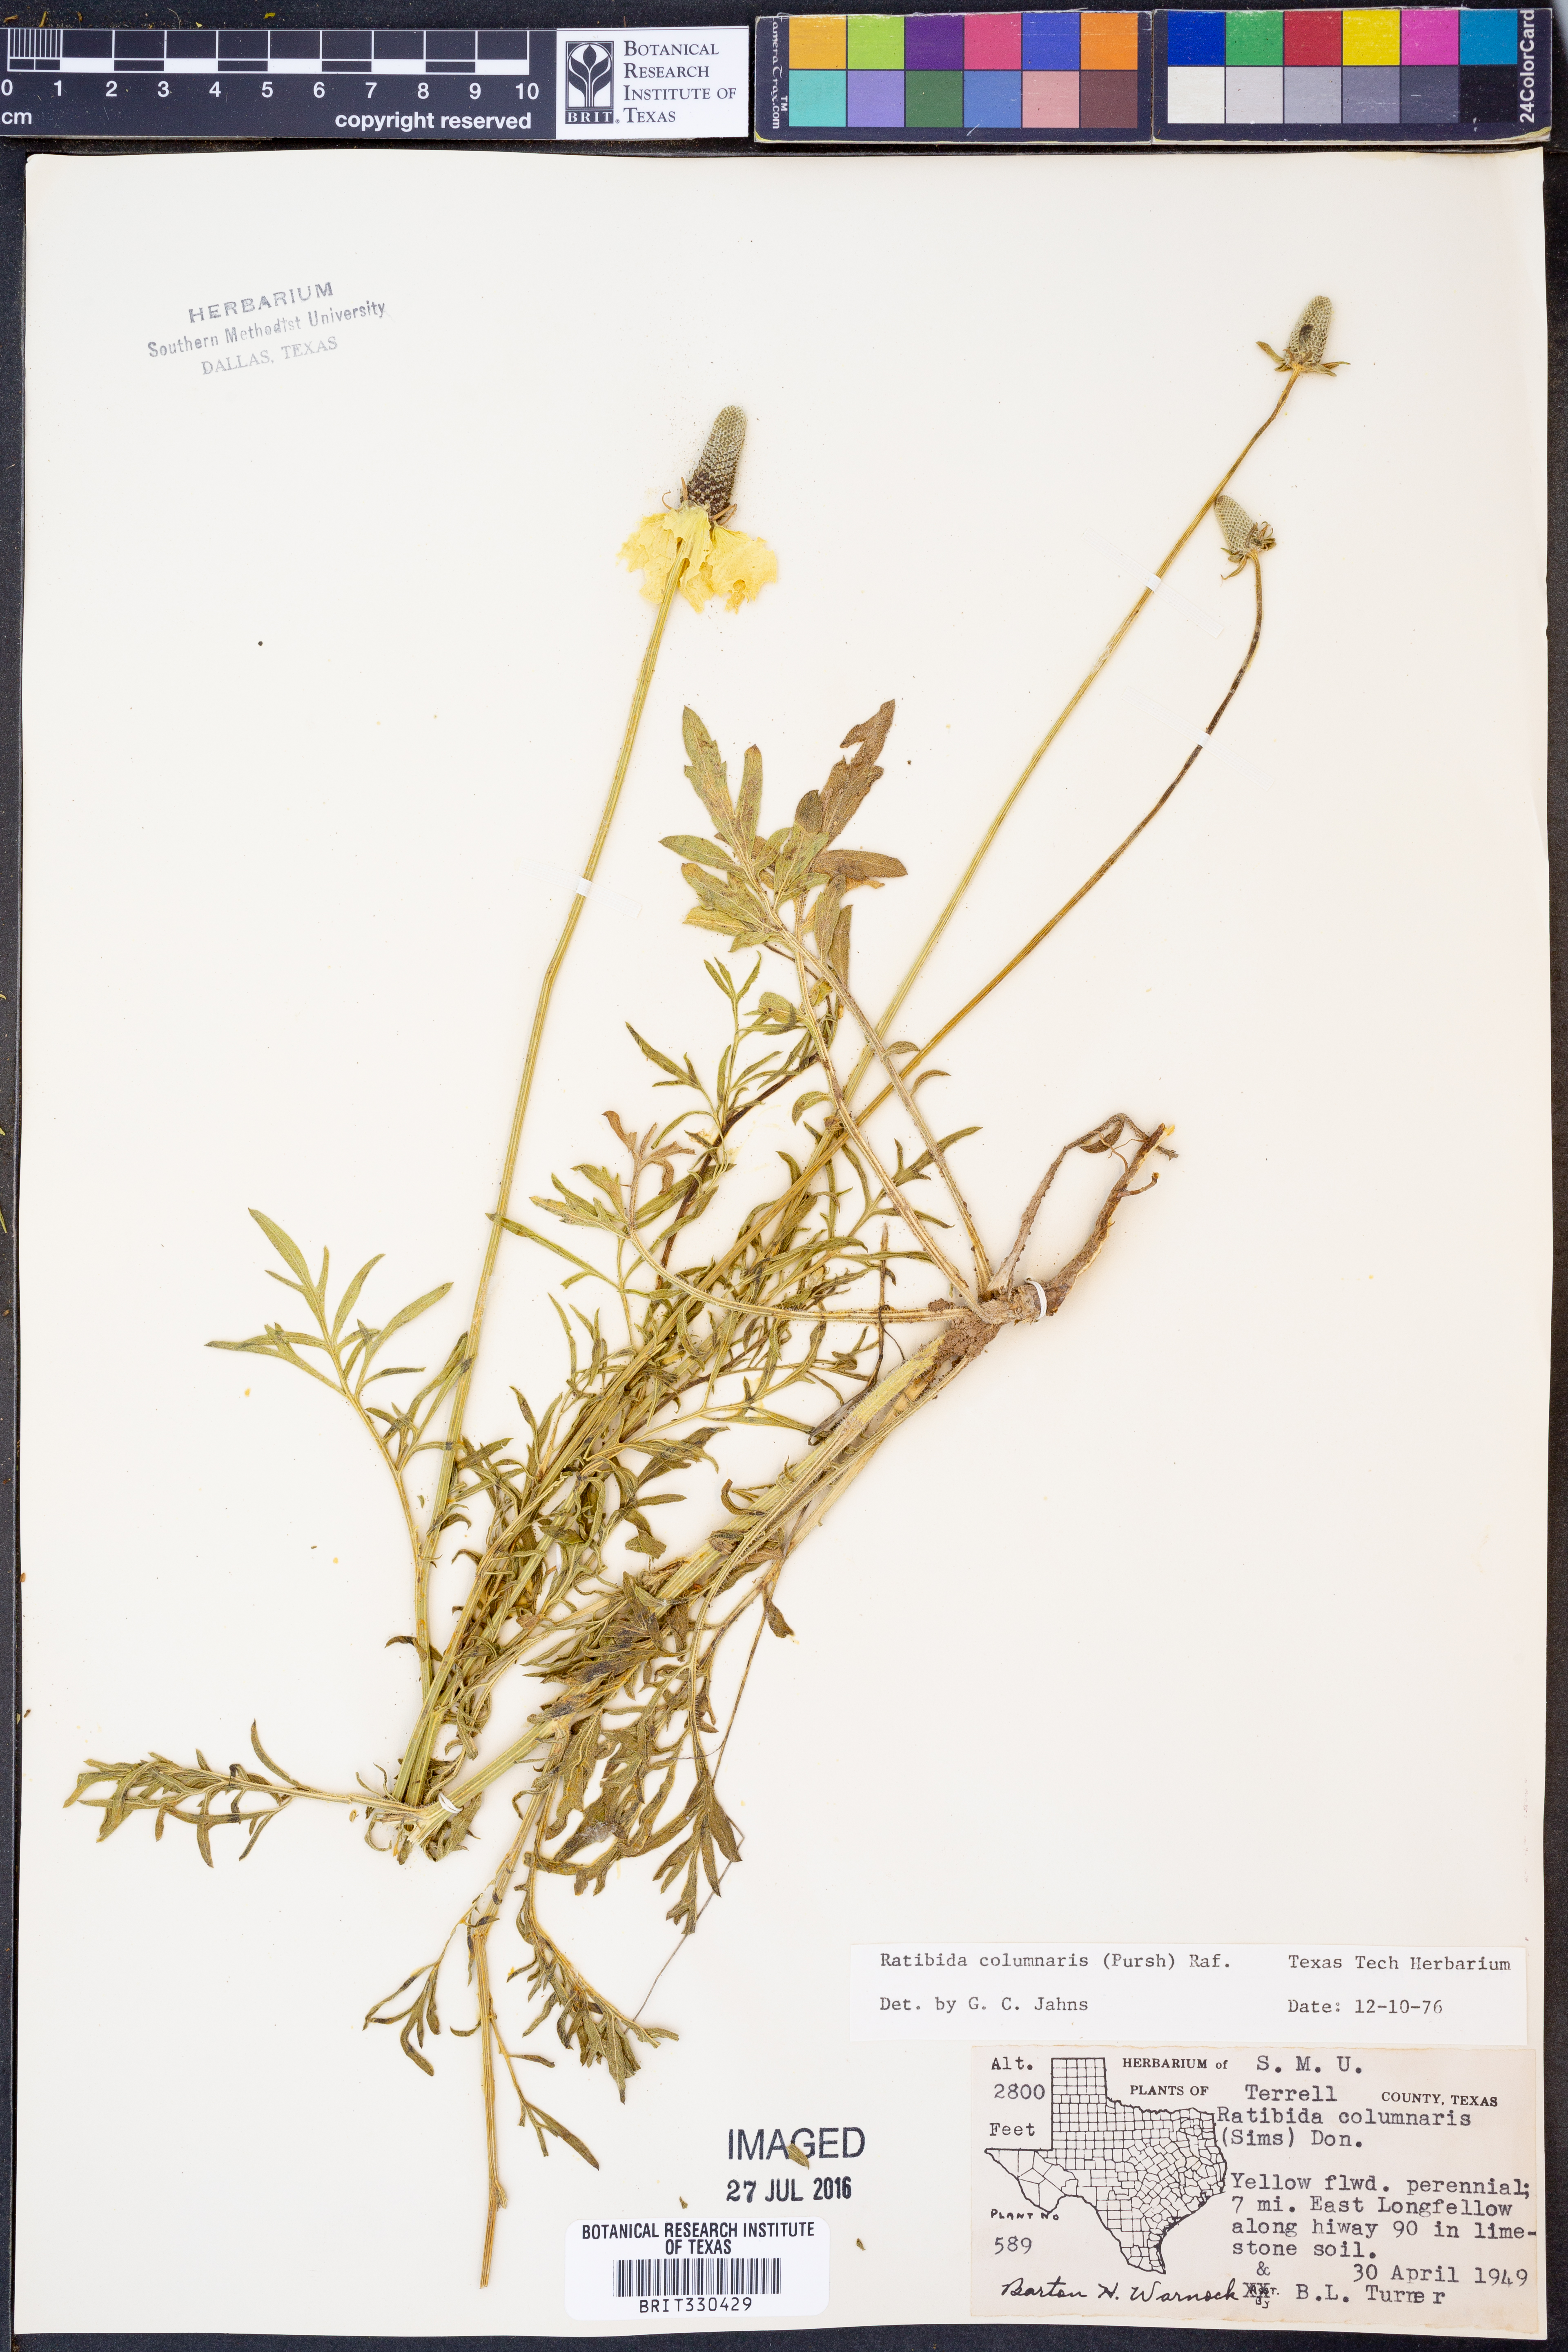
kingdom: Plantae
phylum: Tracheophyta
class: Magnoliopsida
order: Asterales
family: Asteraceae
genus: Ratibida
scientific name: Ratibida columnifera
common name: Prairie coneflower
